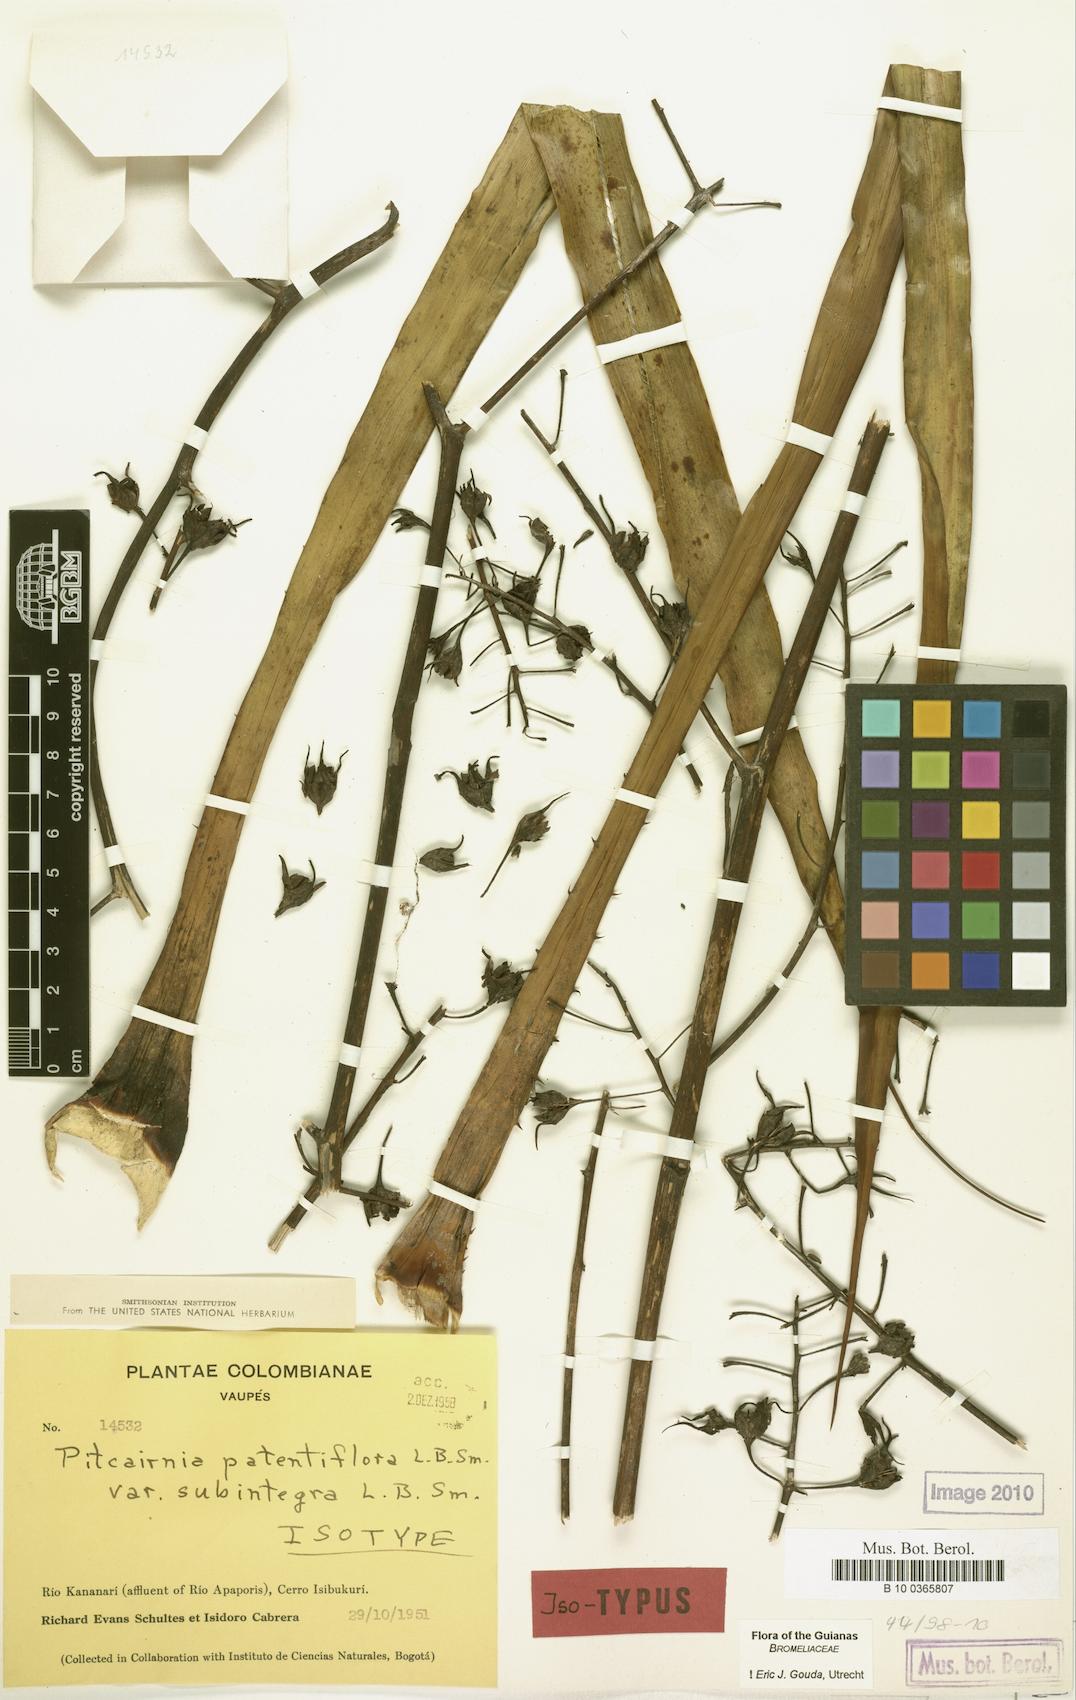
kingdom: Plantae
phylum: Tracheophyta
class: Liliopsida
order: Poales
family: Bromeliaceae
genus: Pitcairnia
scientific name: Pitcairnia patentiflora
